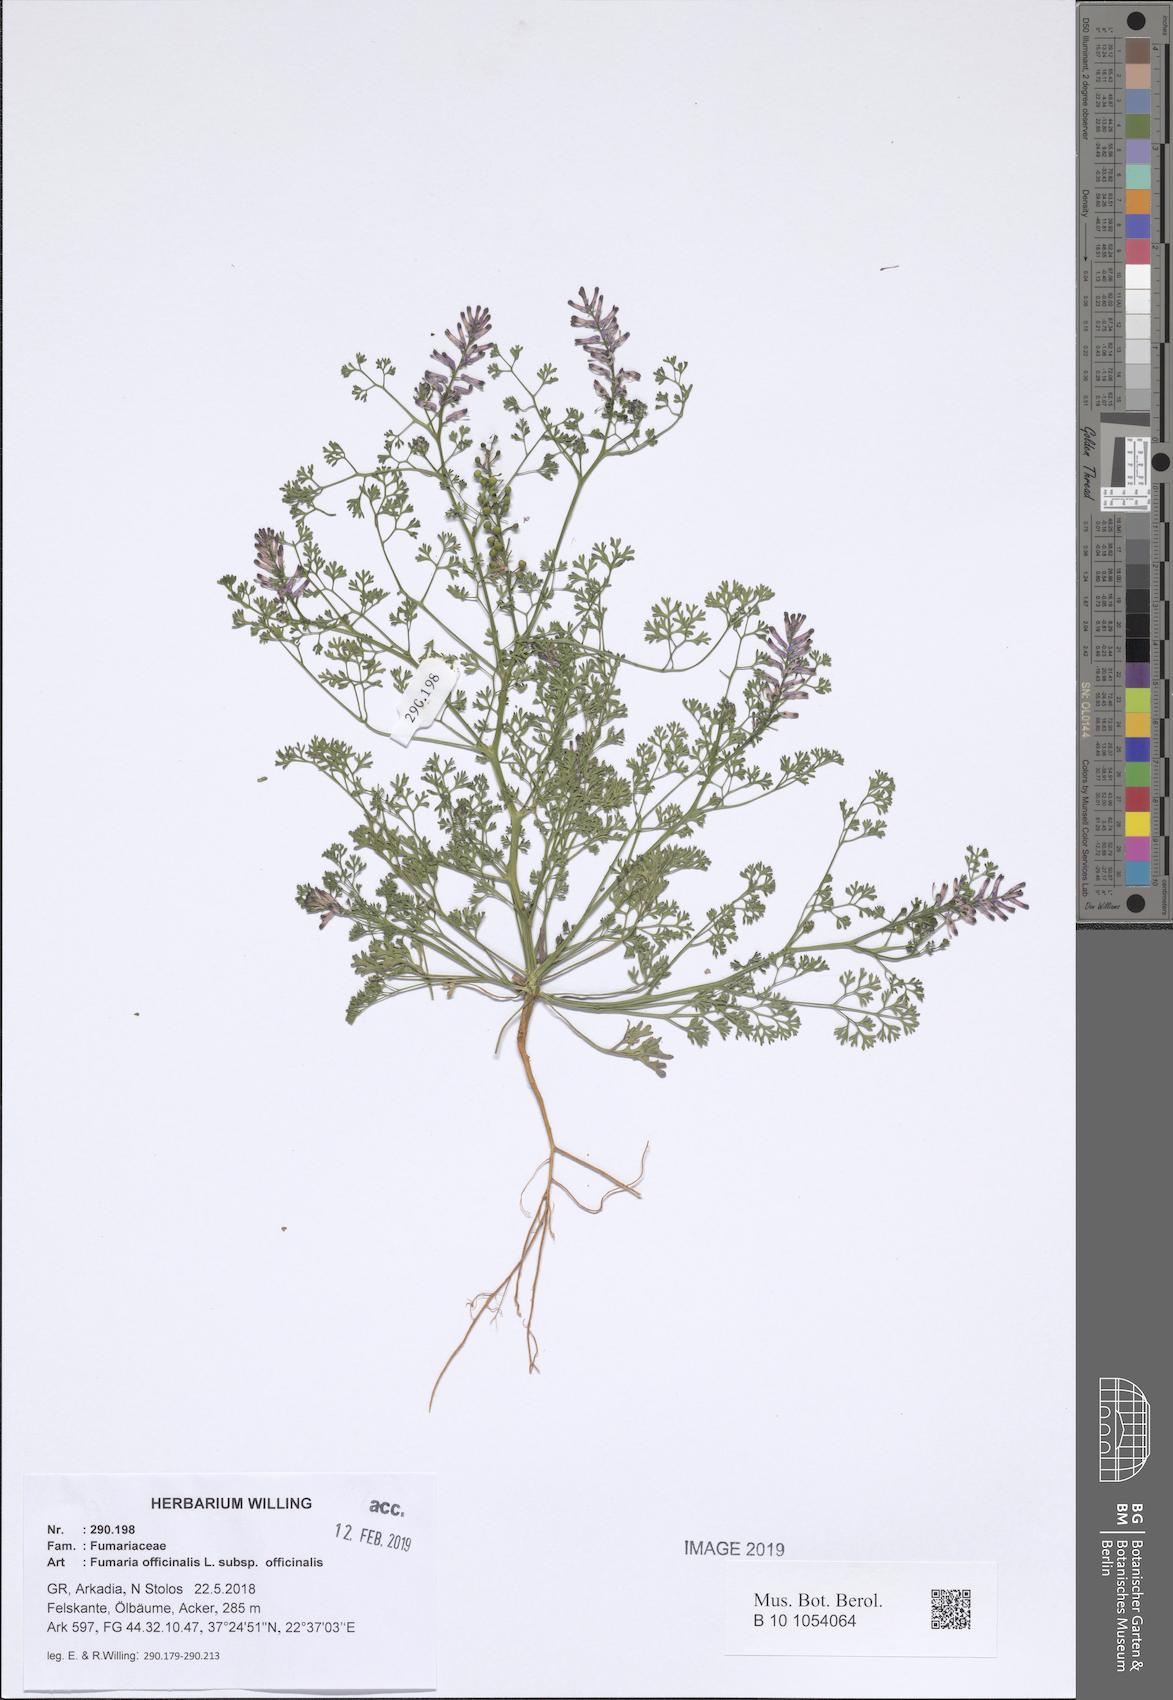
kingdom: Plantae
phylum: Tracheophyta
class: Magnoliopsida
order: Ranunculales
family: Papaveraceae
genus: Fumaria
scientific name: Fumaria officinalis
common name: Common fumitory
